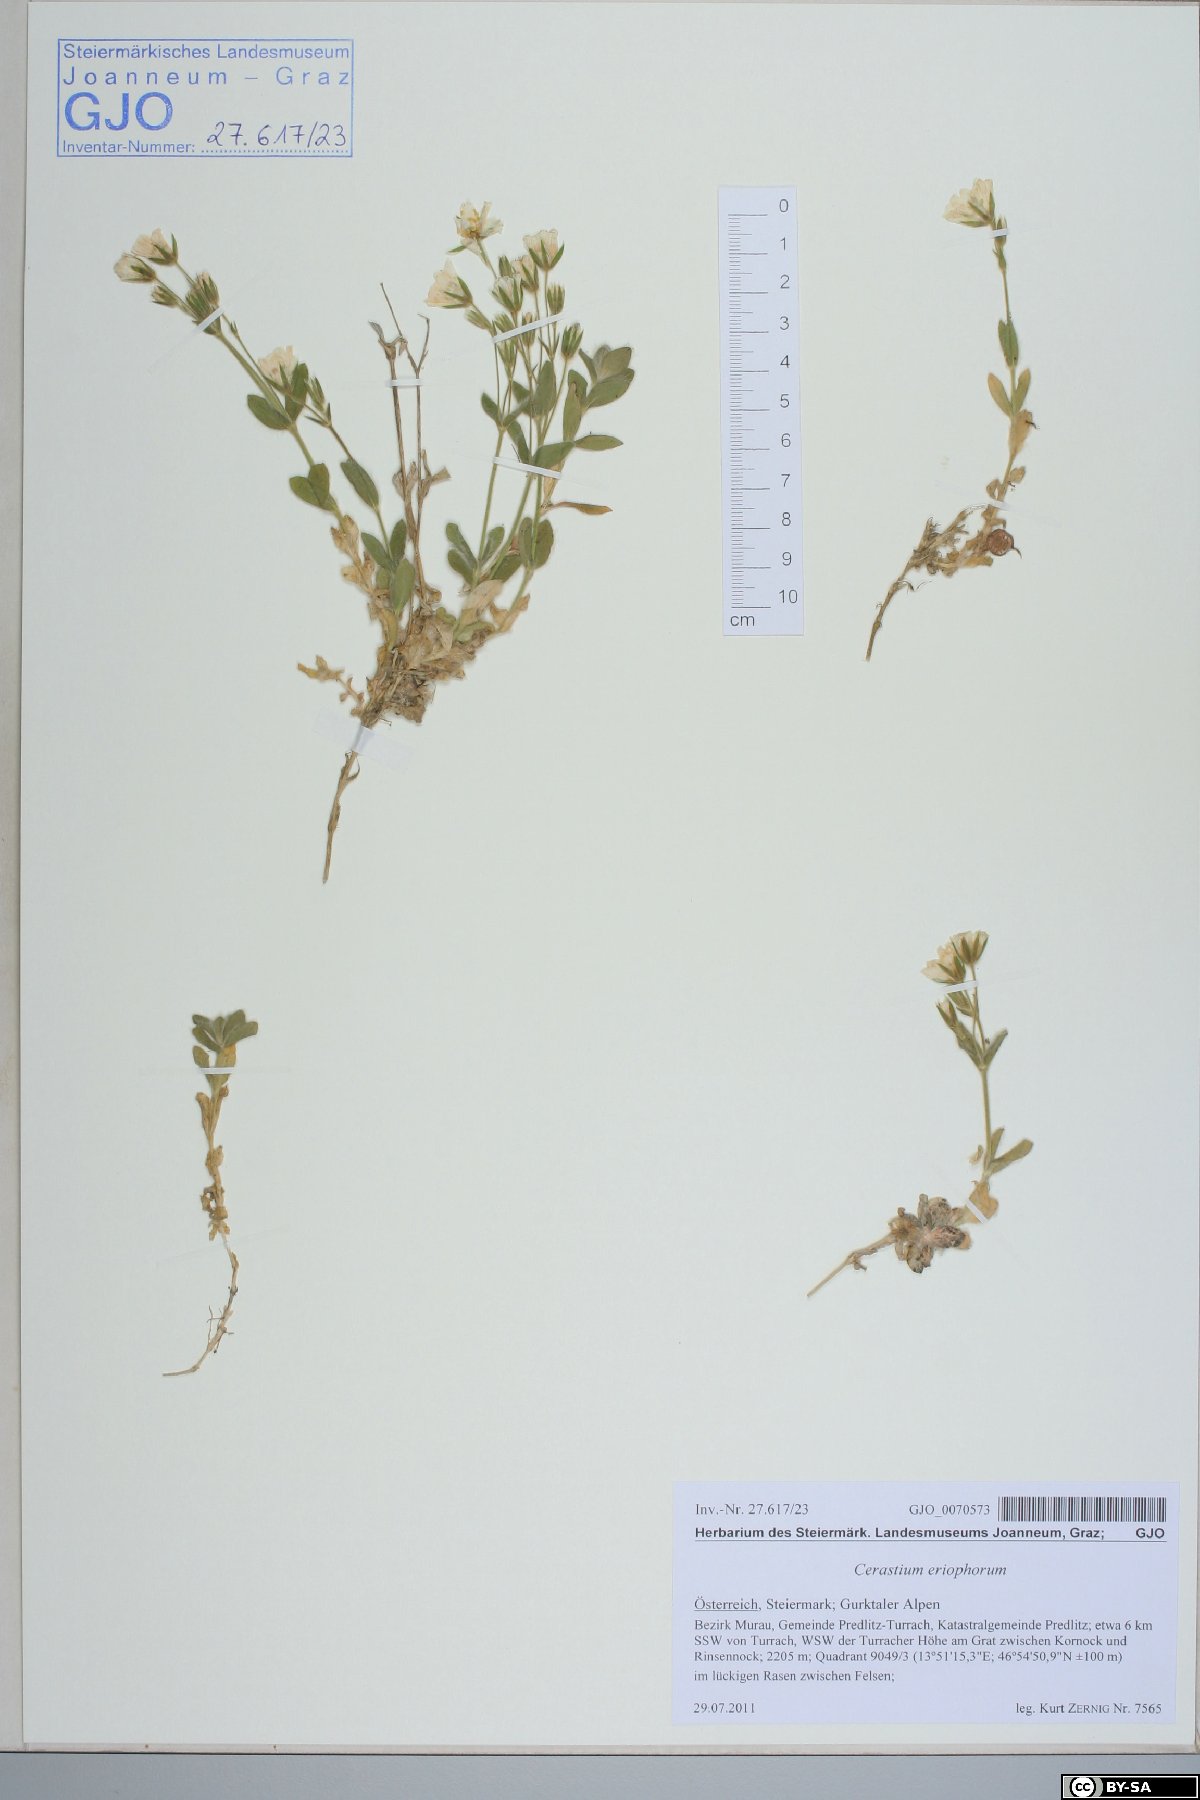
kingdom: Plantae
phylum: Tracheophyta
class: Magnoliopsida
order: Caryophyllales
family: Caryophyllaceae
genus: Cerastium
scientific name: Cerastium eriophorum
